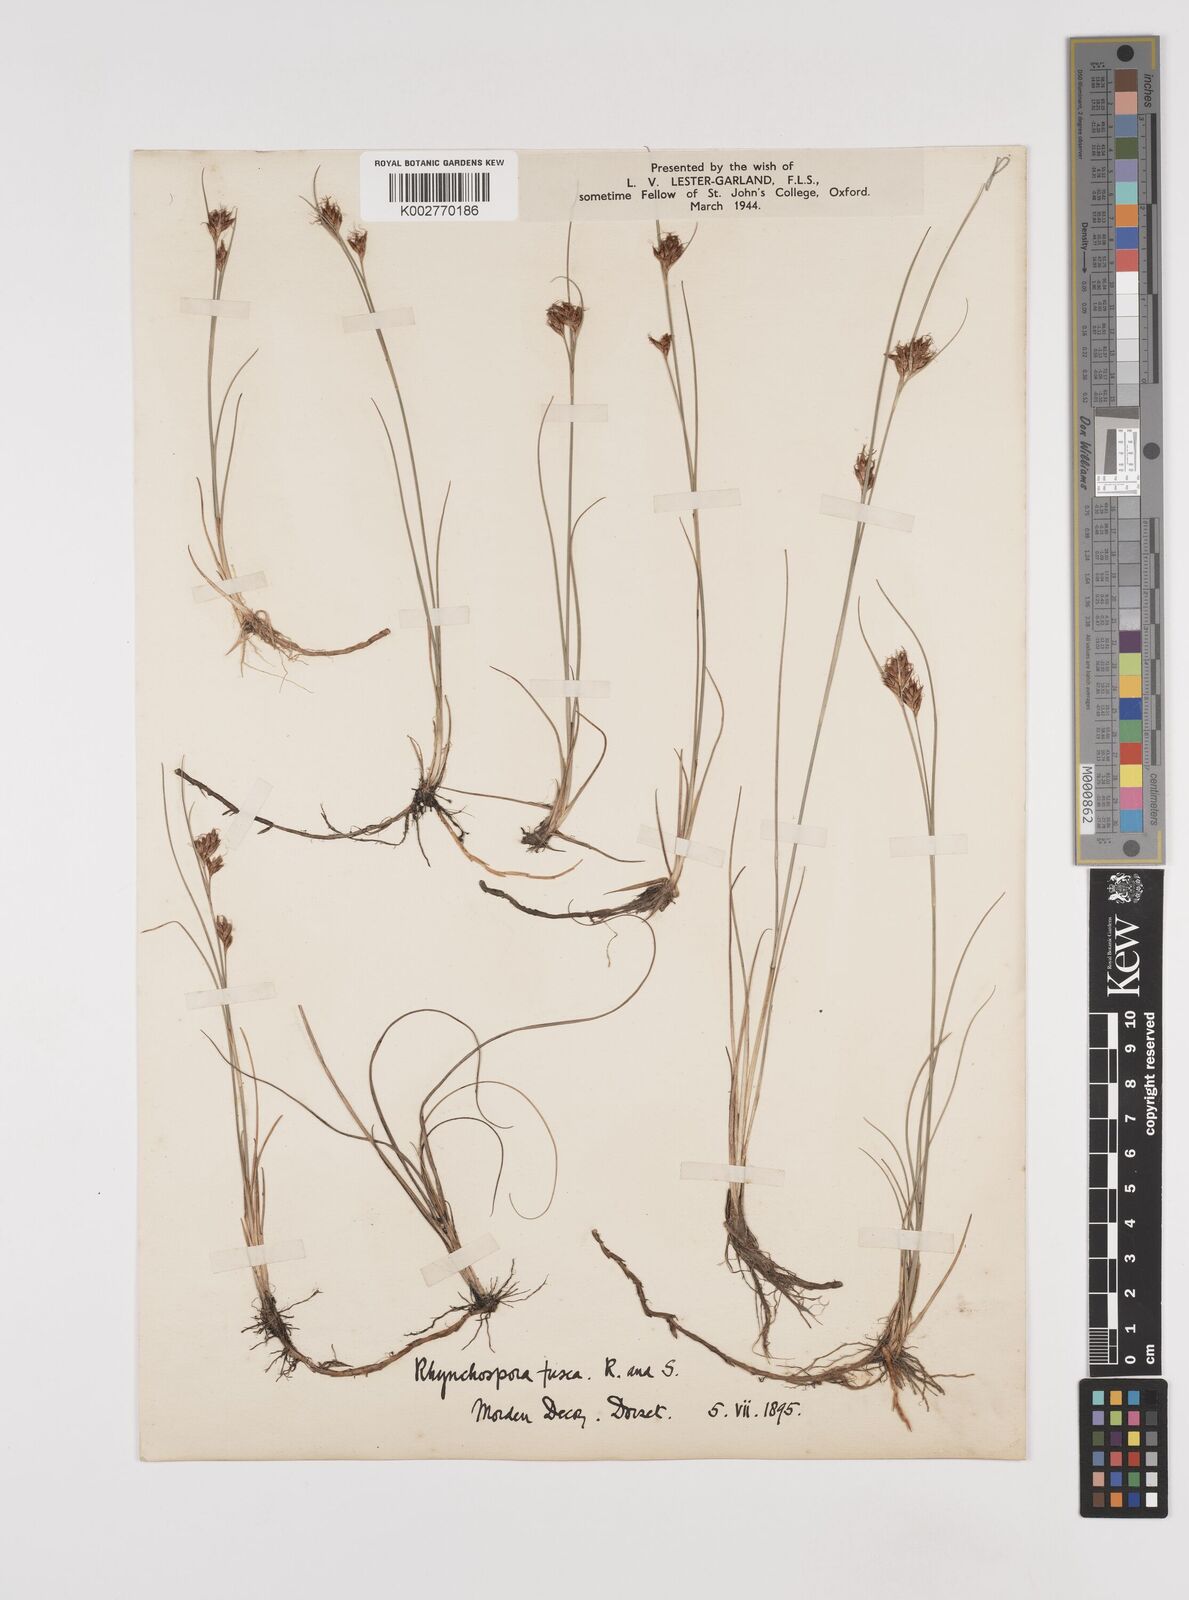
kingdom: Plantae
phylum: Tracheophyta
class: Liliopsida
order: Poales
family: Cyperaceae
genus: Rhynchospora
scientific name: Rhynchospora fusca
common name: Brown beak-sedge
